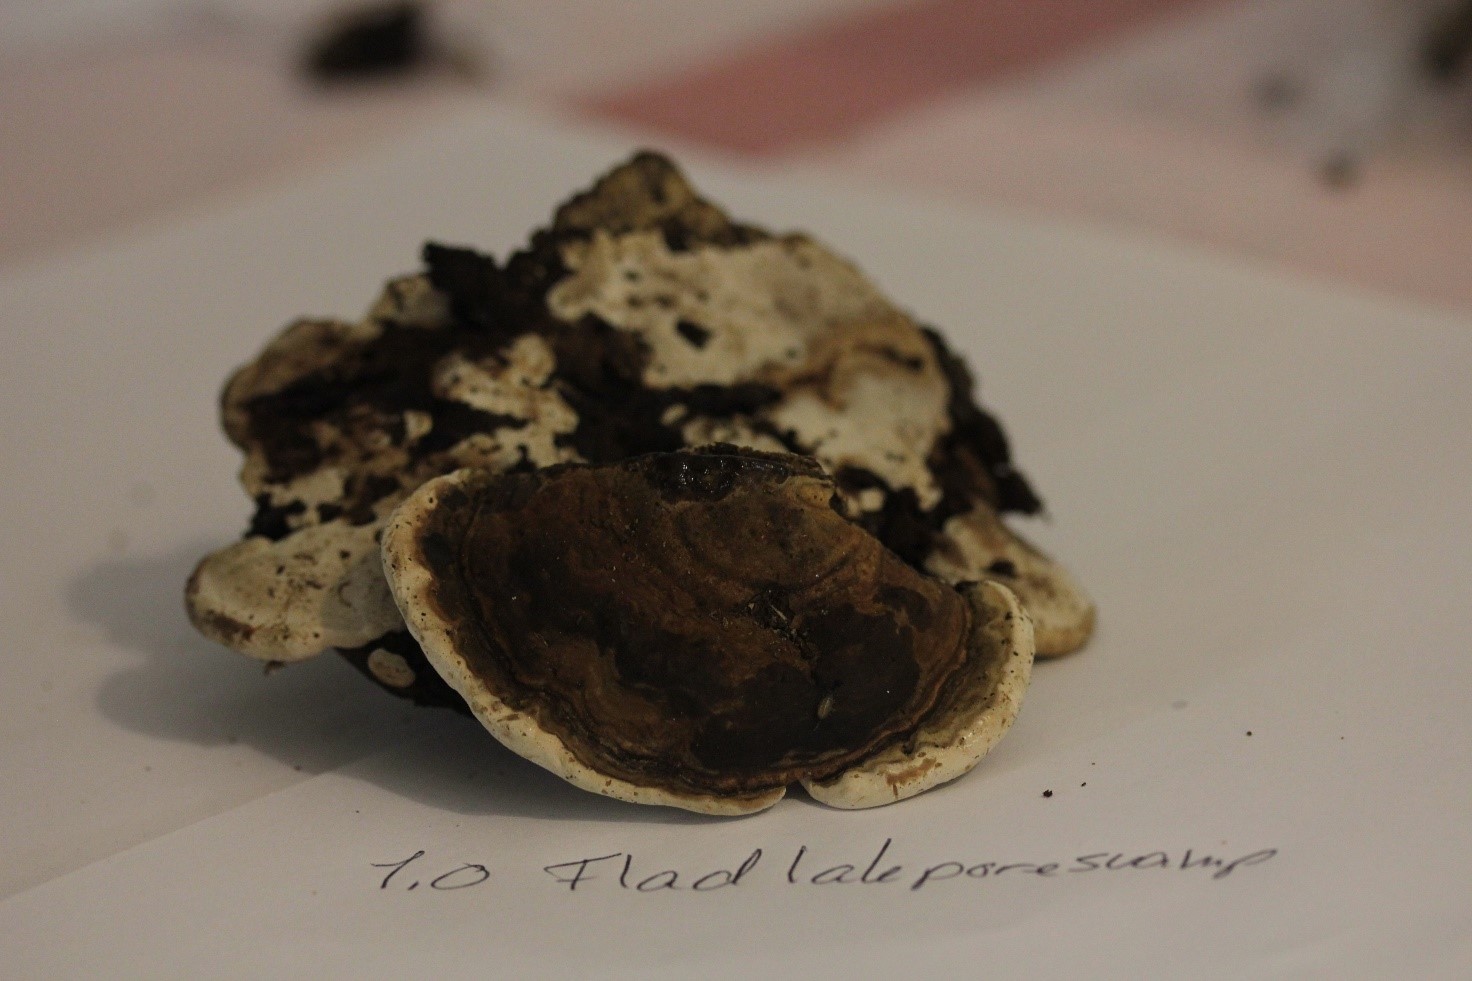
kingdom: Fungi
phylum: Basidiomycota
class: Agaricomycetes
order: Polyporales
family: Polyporaceae
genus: Ganoderma
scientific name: Ganoderma applanatum
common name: flad lakporesvamp
